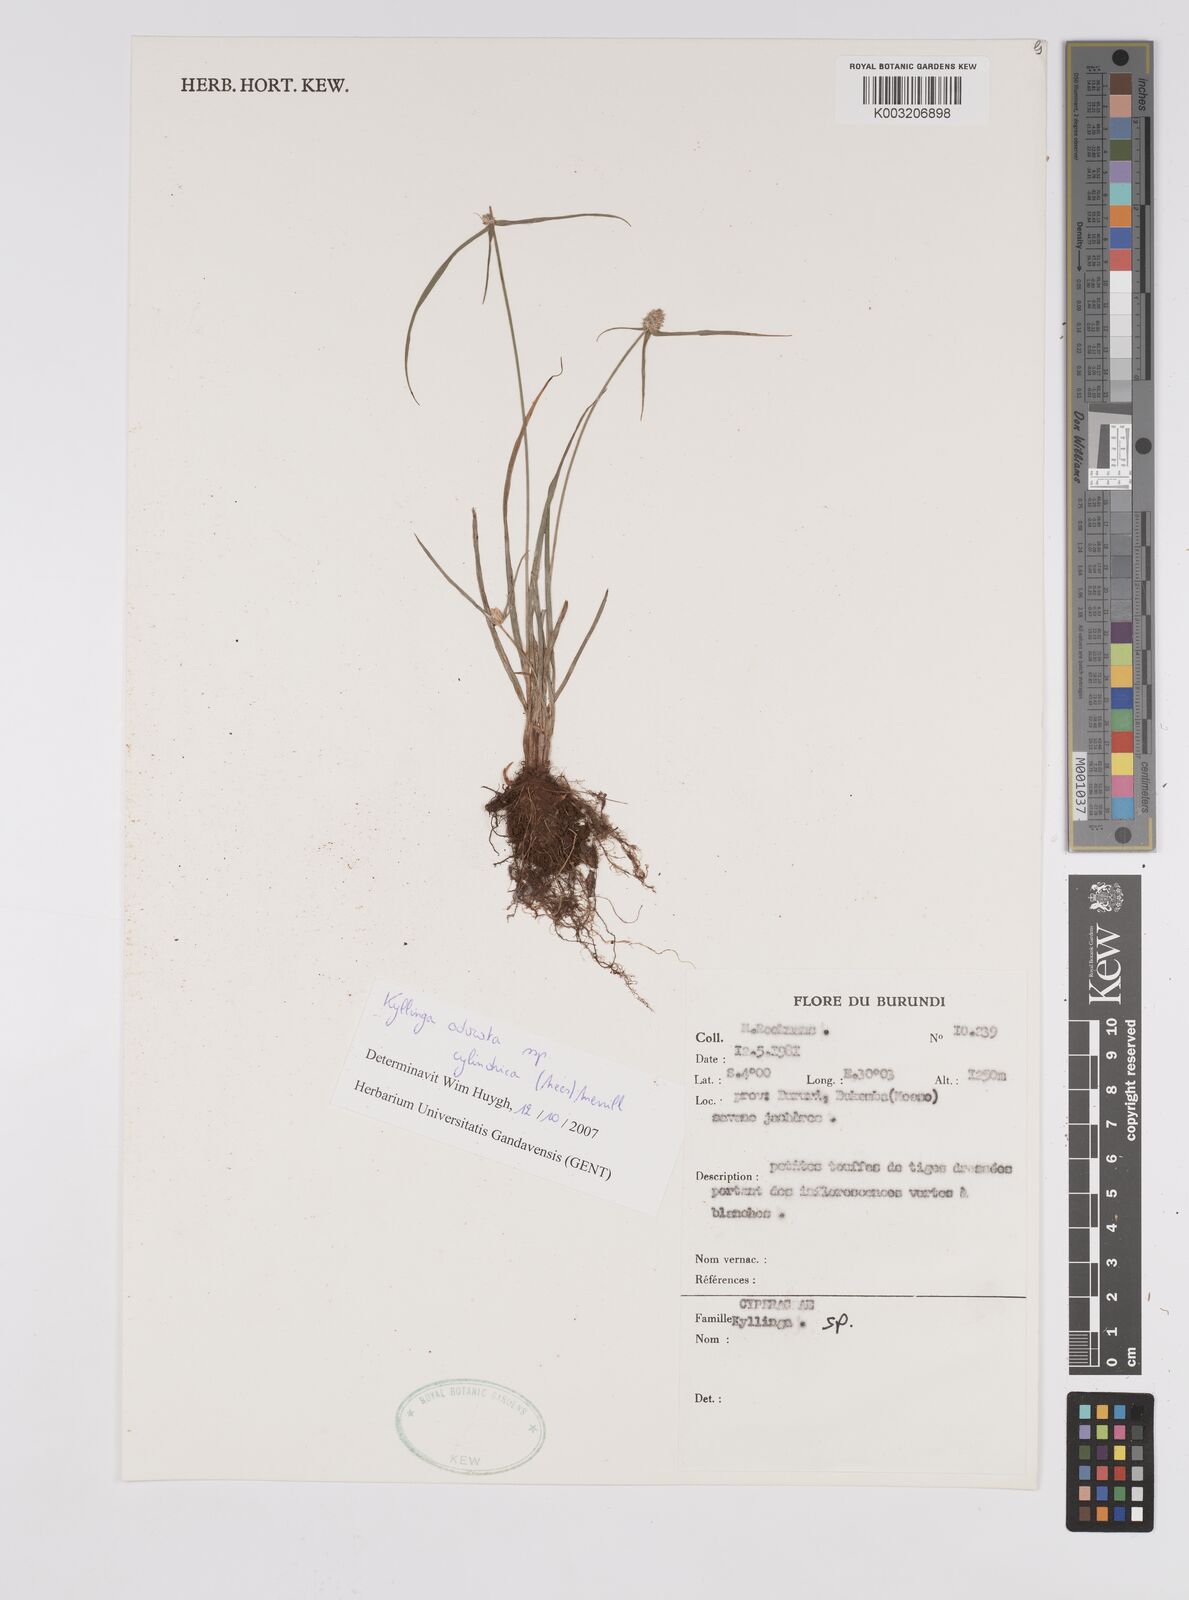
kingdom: Plantae
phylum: Tracheophyta
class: Liliopsida
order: Poales
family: Cyperaceae
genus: Cyperus
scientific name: Cyperus odoratus
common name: Fragrant flatsedge
